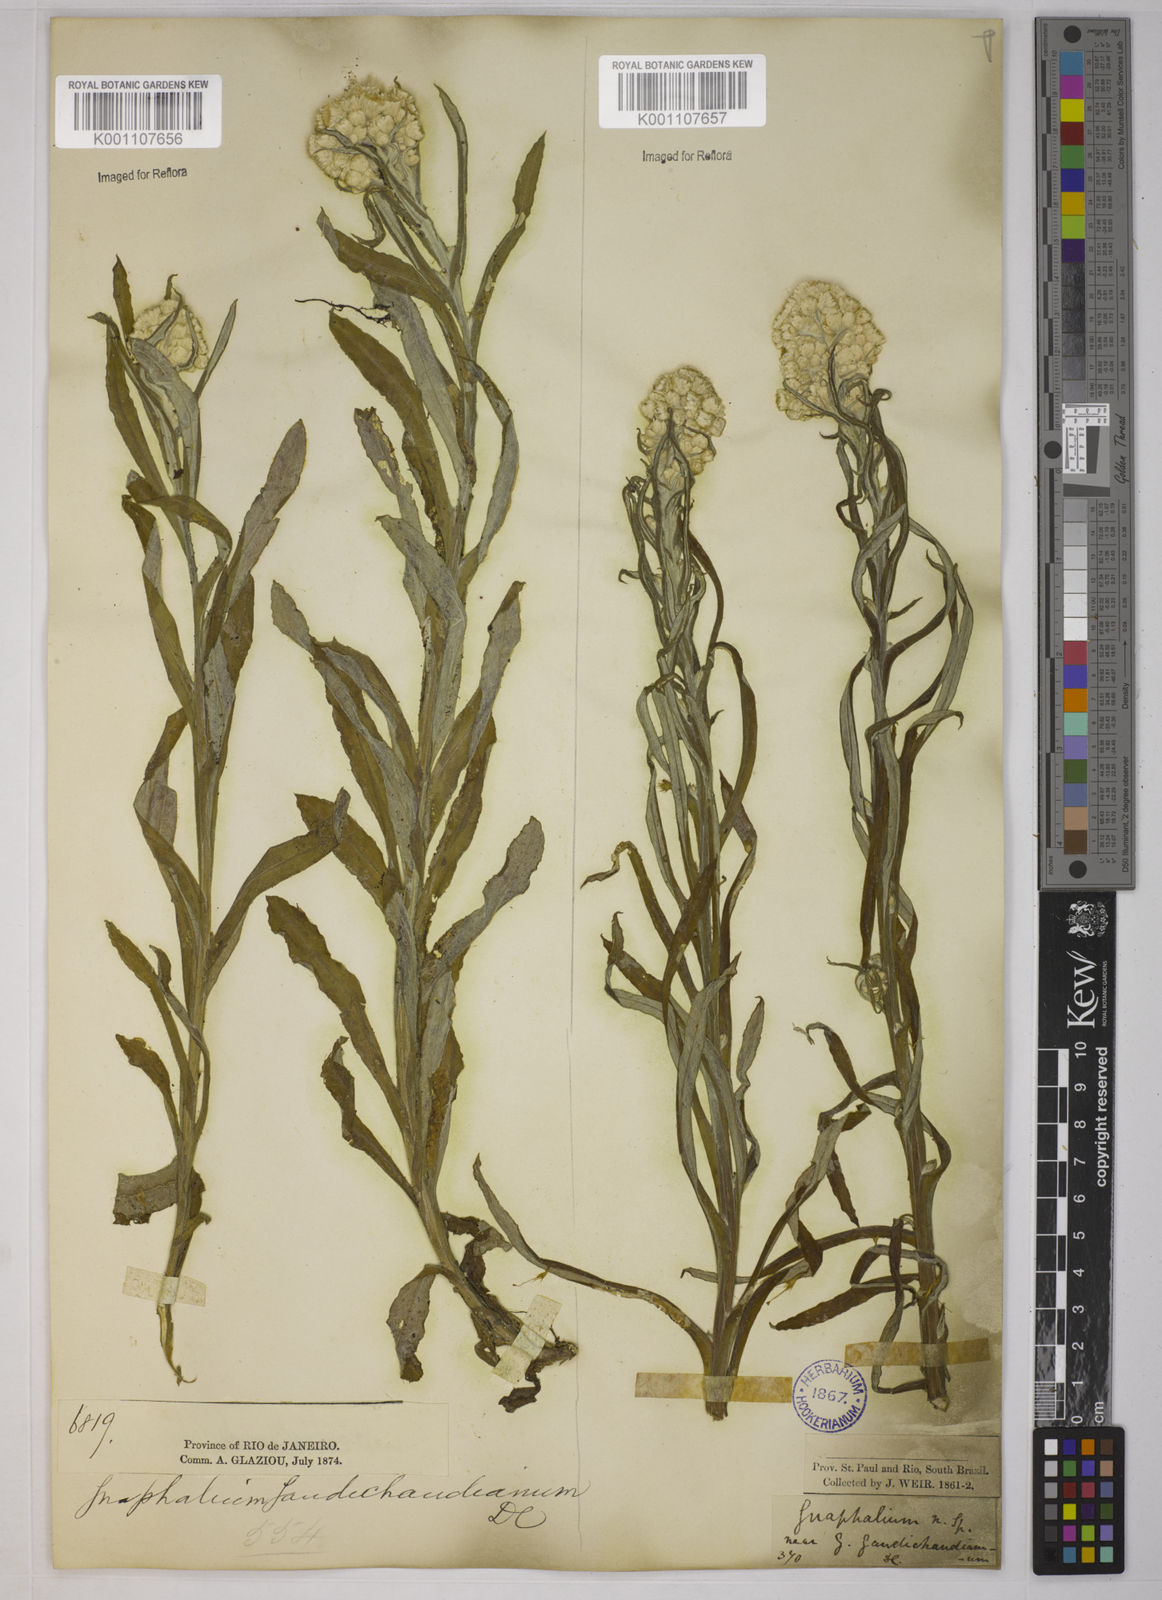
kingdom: Plantae
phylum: Tracheophyta
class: Magnoliopsida
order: Asterales
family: Asteraceae
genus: Pseudognaphalium
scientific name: Pseudognaphalium gaudichaudianum
